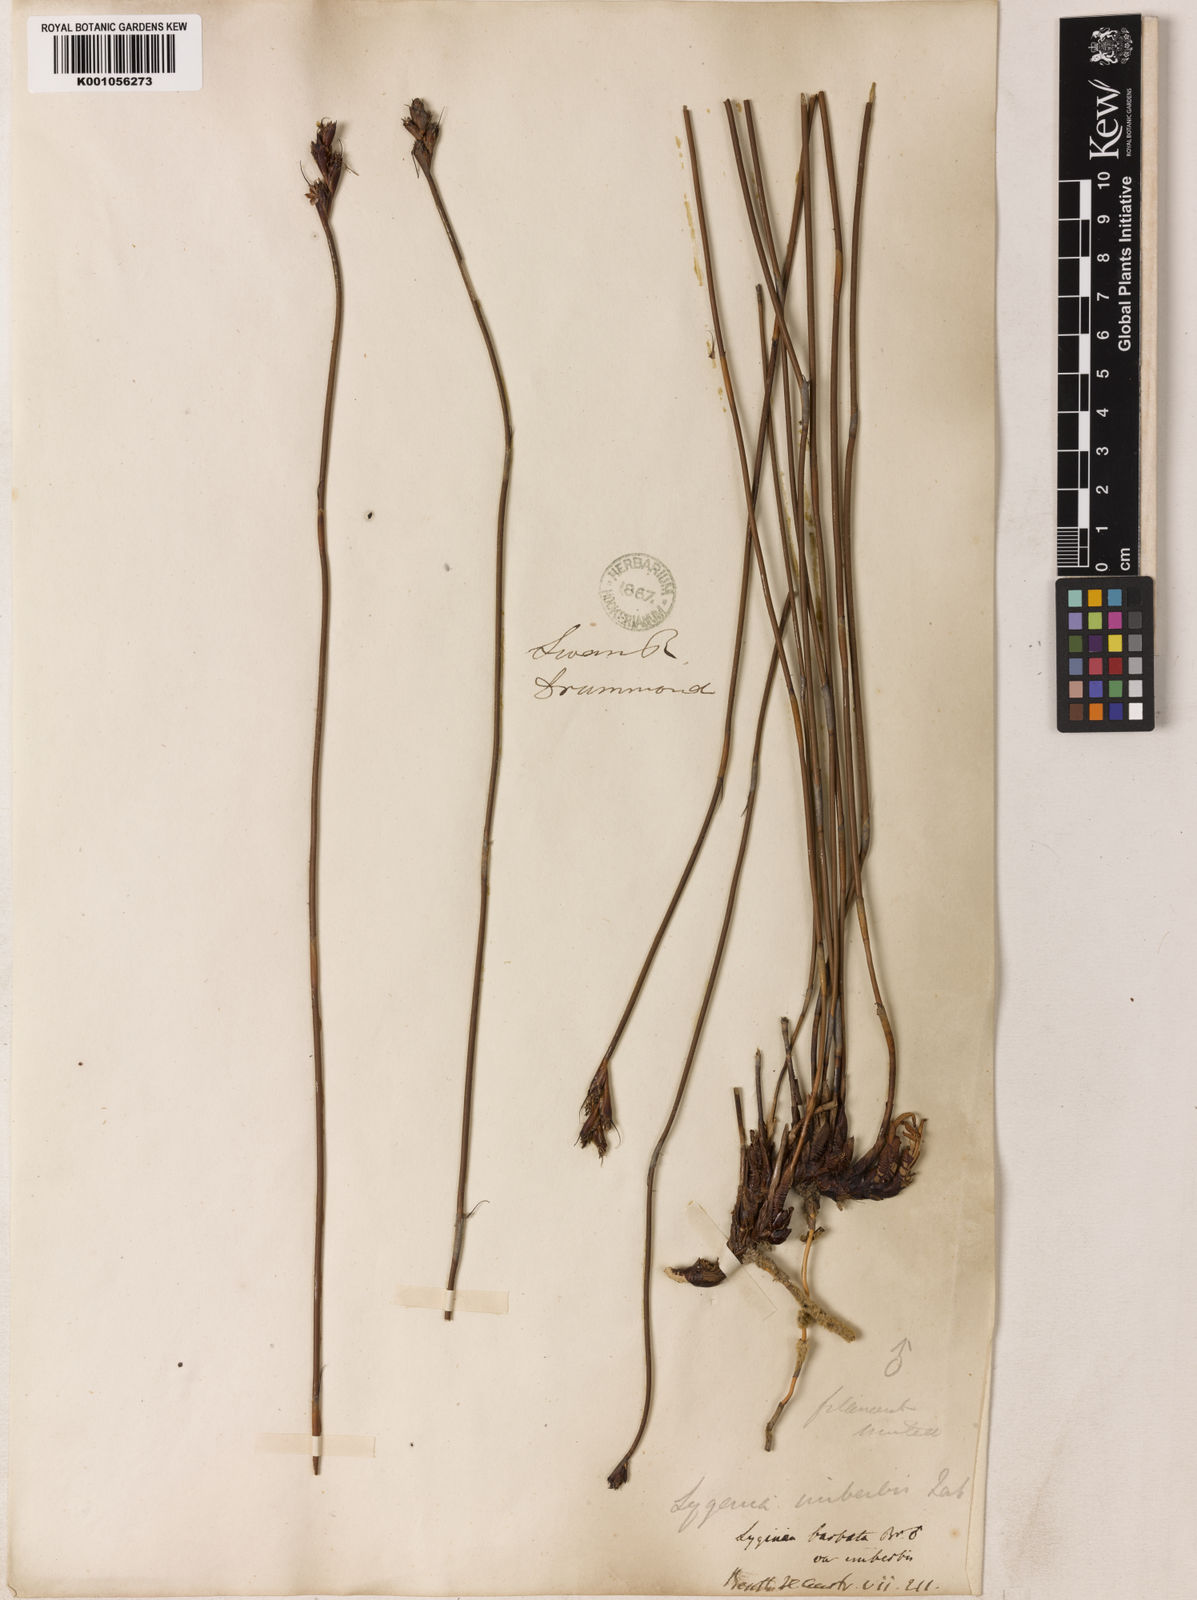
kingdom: Plantae
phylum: Tracheophyta
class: Liliopsida
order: Poales
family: Restionaceae
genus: Lyginia
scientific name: Lyginia imberbis
